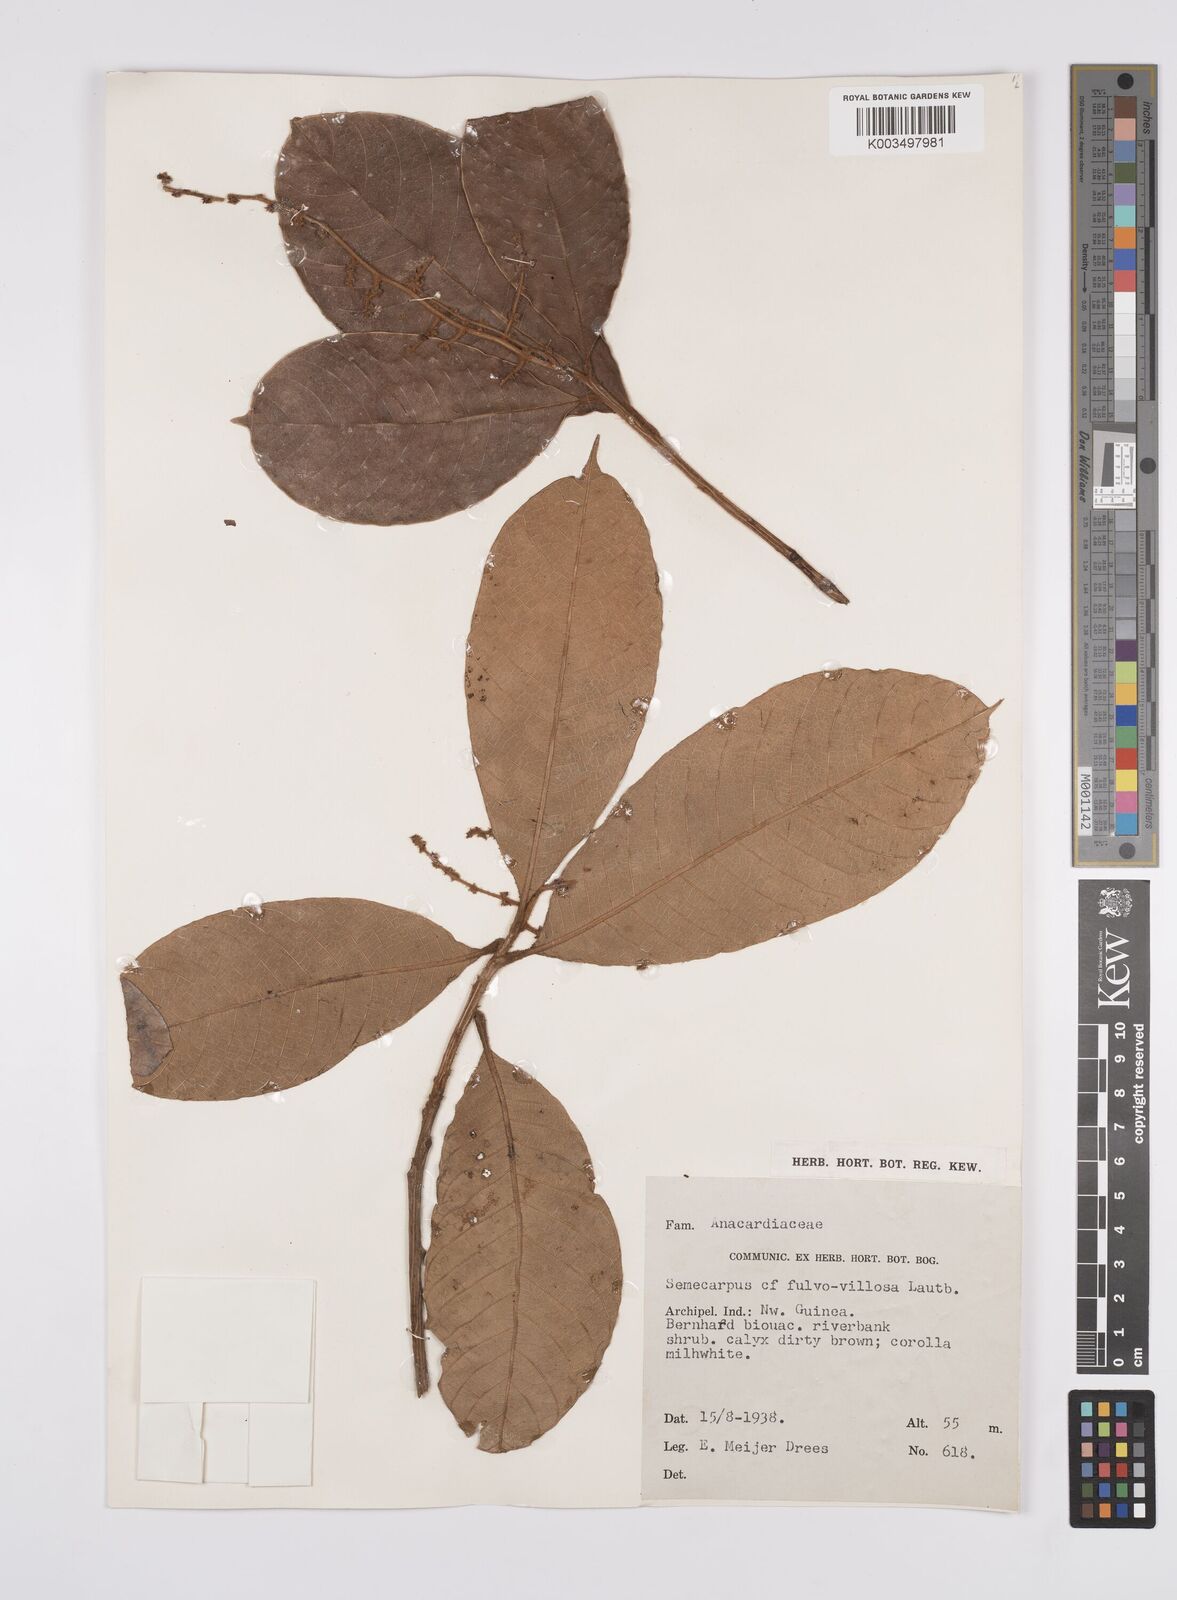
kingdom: Plantae
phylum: Tracheophyta
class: Magnoliopsida
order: Sapindales
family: Anacardiaceae
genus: Semecarpus
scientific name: Semecarpus aruensis
